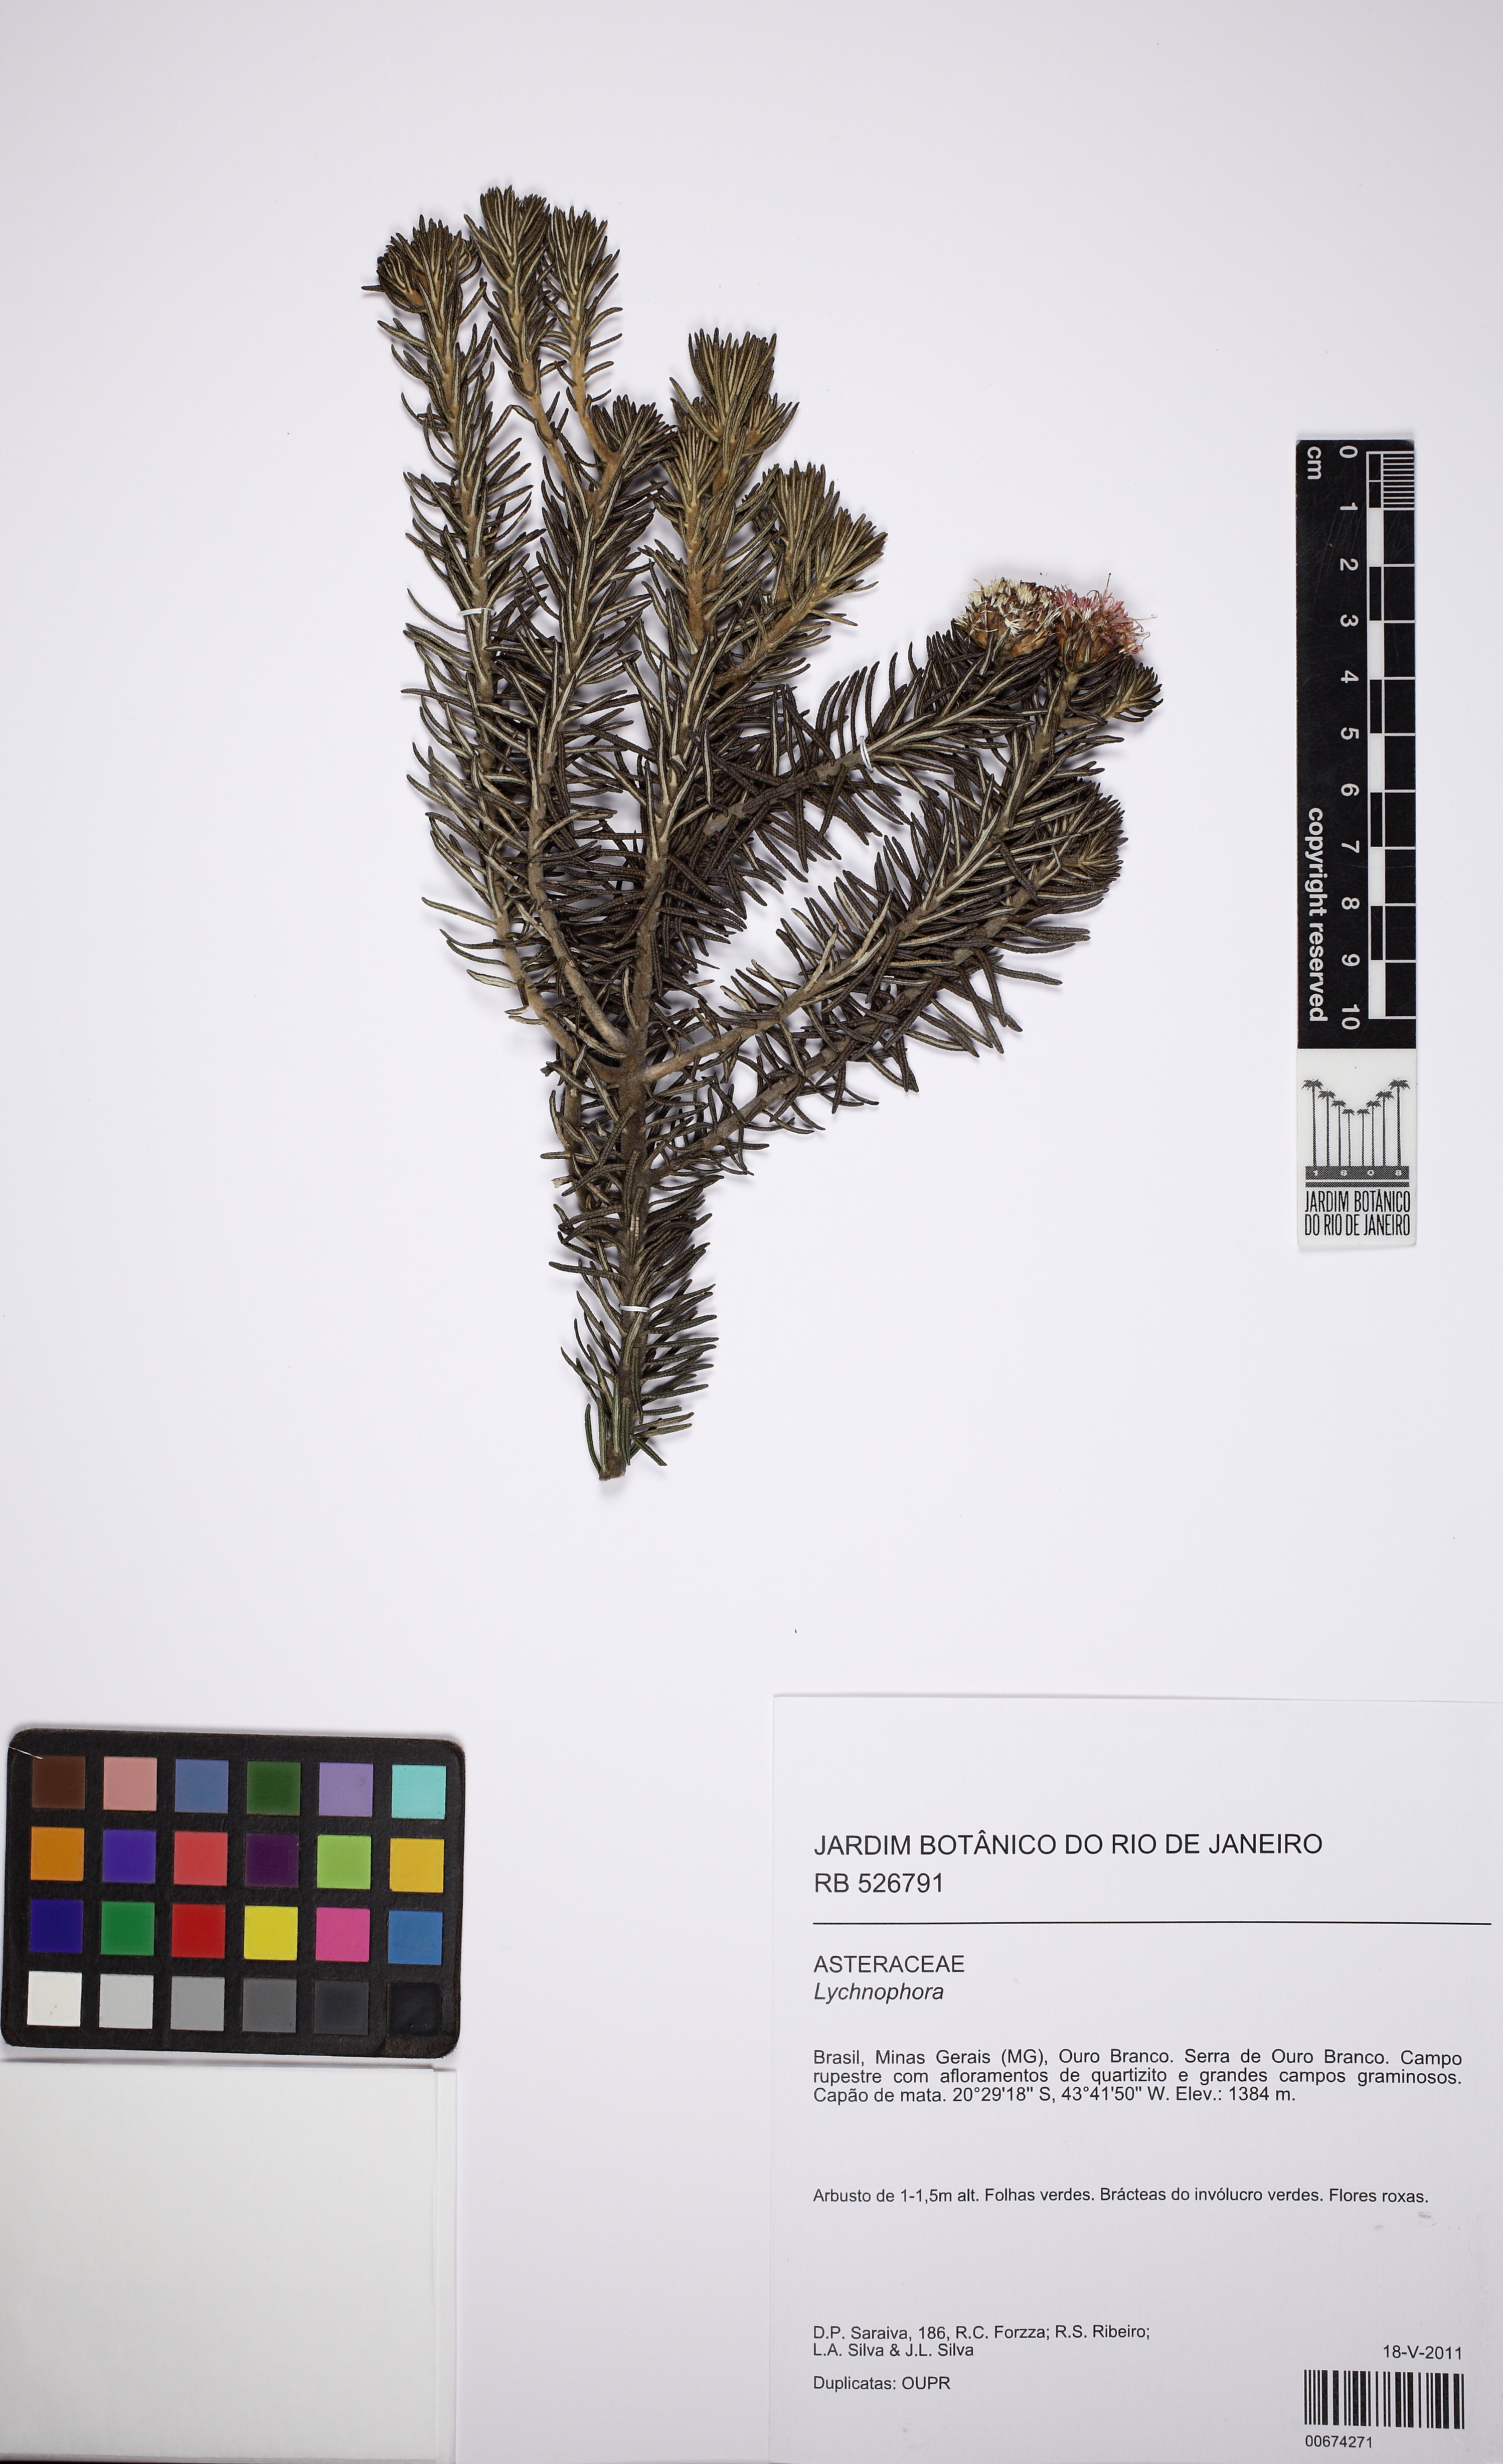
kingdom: Plantae
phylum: Tracheophyta
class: Magnoliopsida
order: Asterales
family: Asteraceae
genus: Lychnophora
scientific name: Lychnophora pinaster
